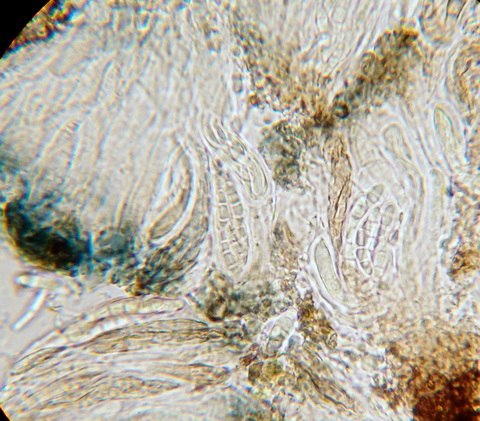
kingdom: Fungi
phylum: Ascomycota
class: Arthoniomycetes
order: Arthoniales
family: Opegraphaceae
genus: Opegrapha
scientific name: Opegrapha
